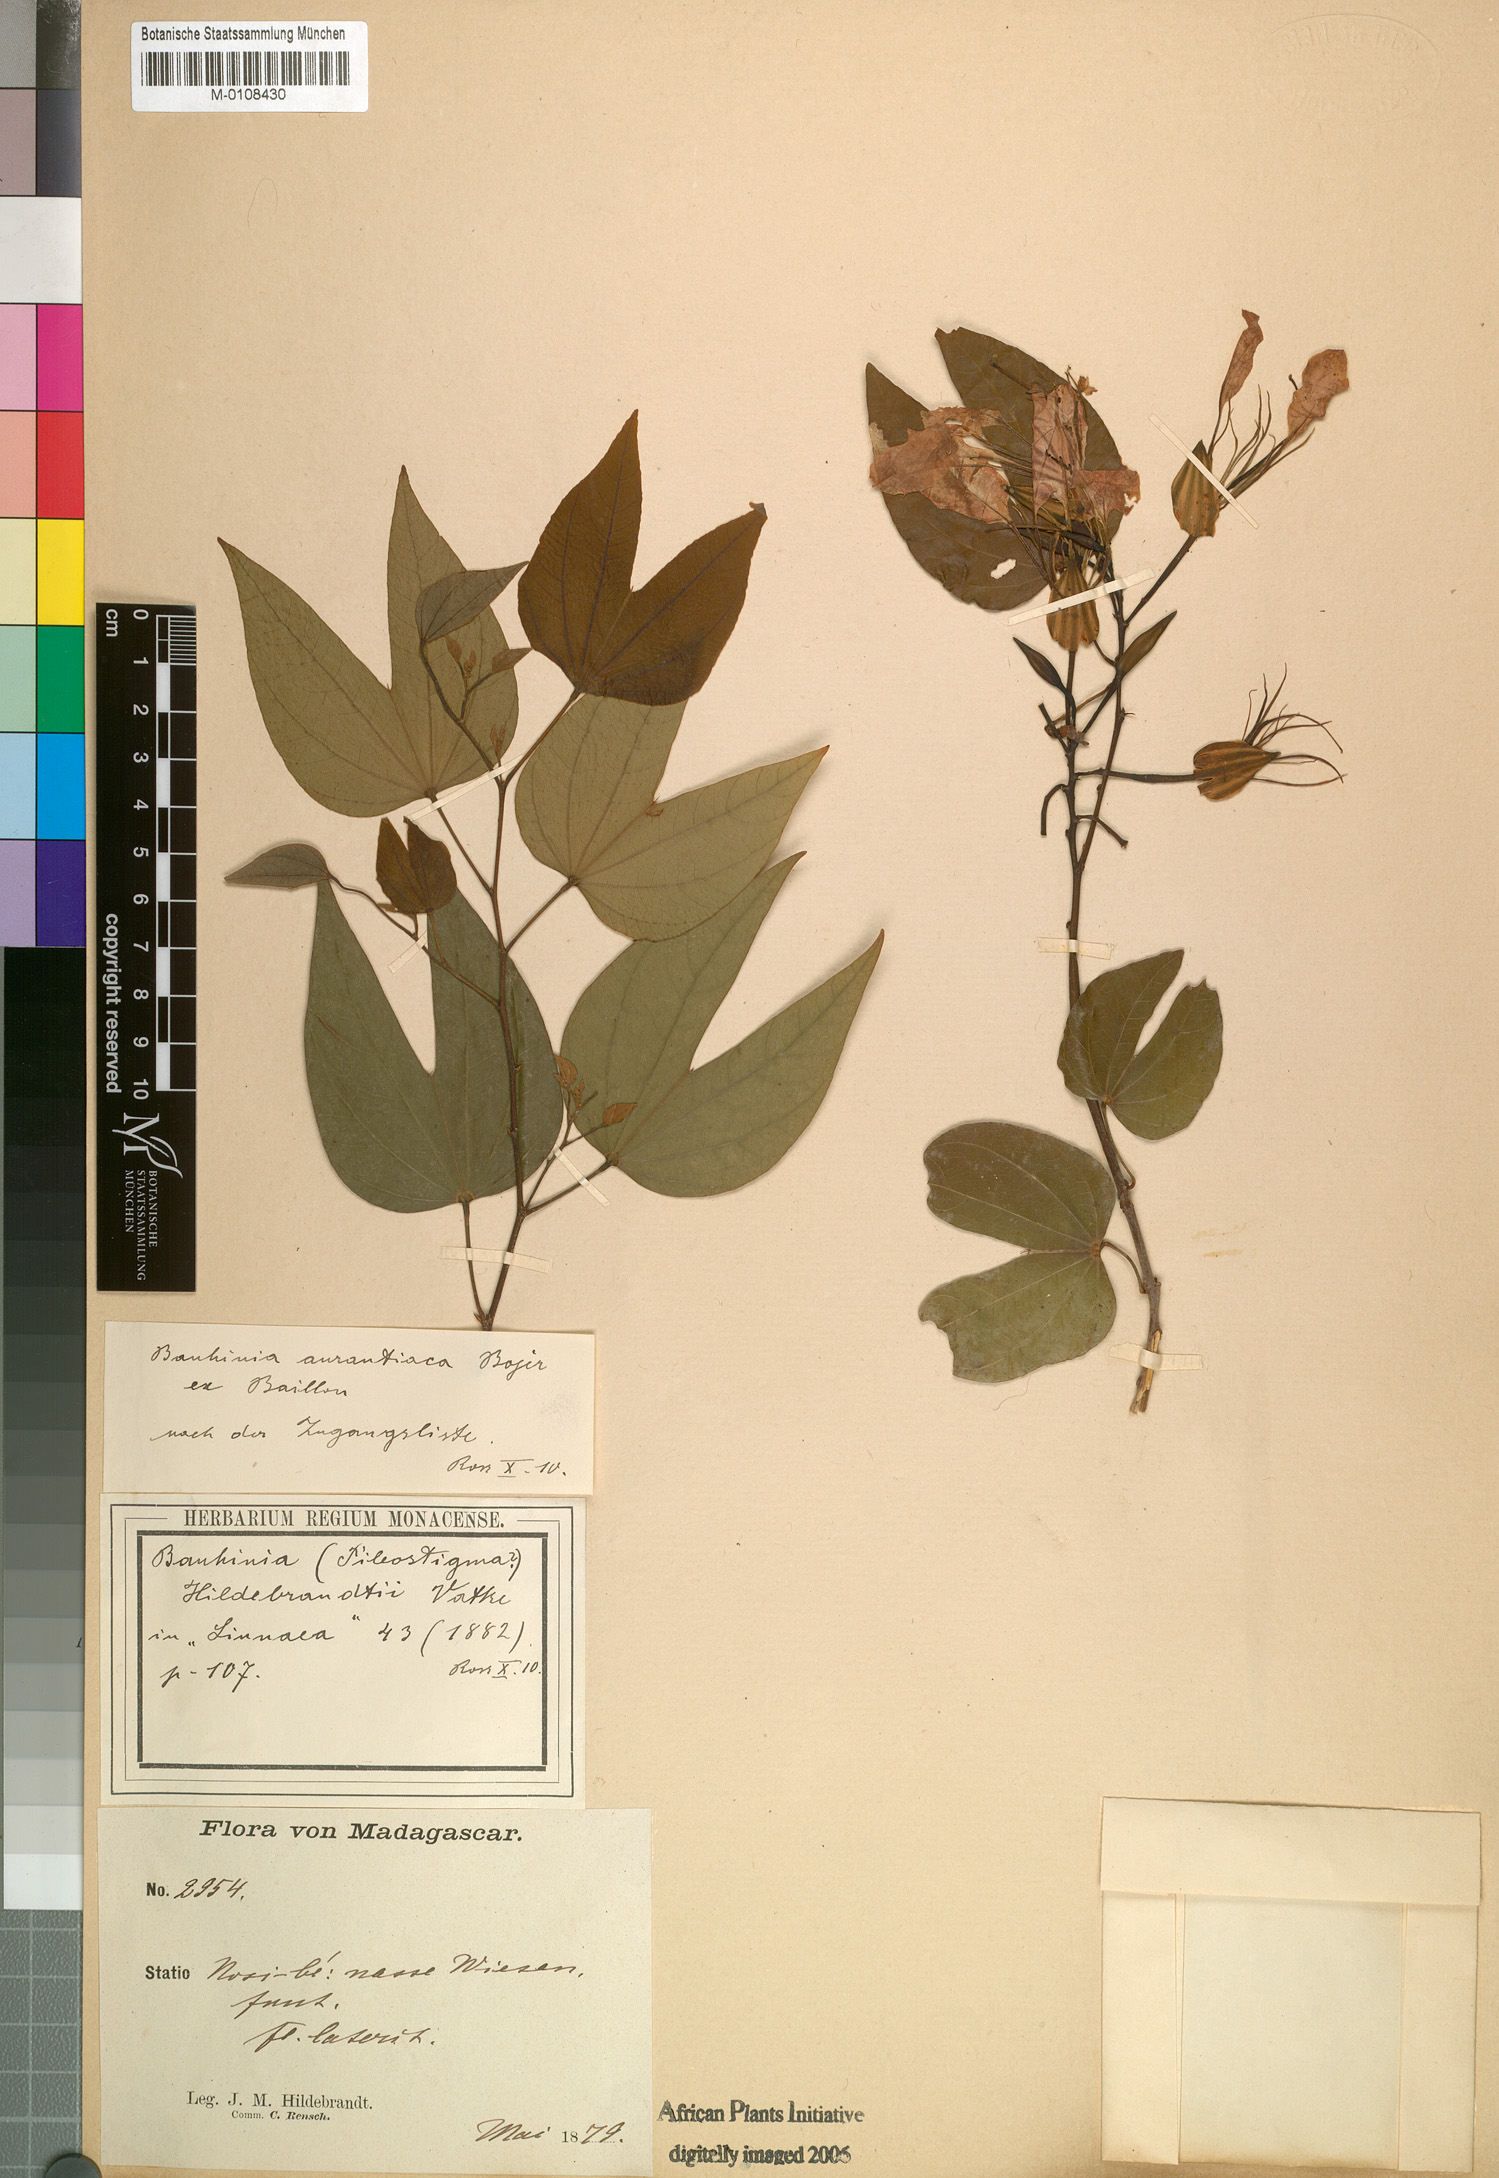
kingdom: Plantae
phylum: Tracheophyta
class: Magnoliopsida
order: Fabales
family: Fabaceae
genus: Bauhinia
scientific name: Bauhinia hildebrandtii
